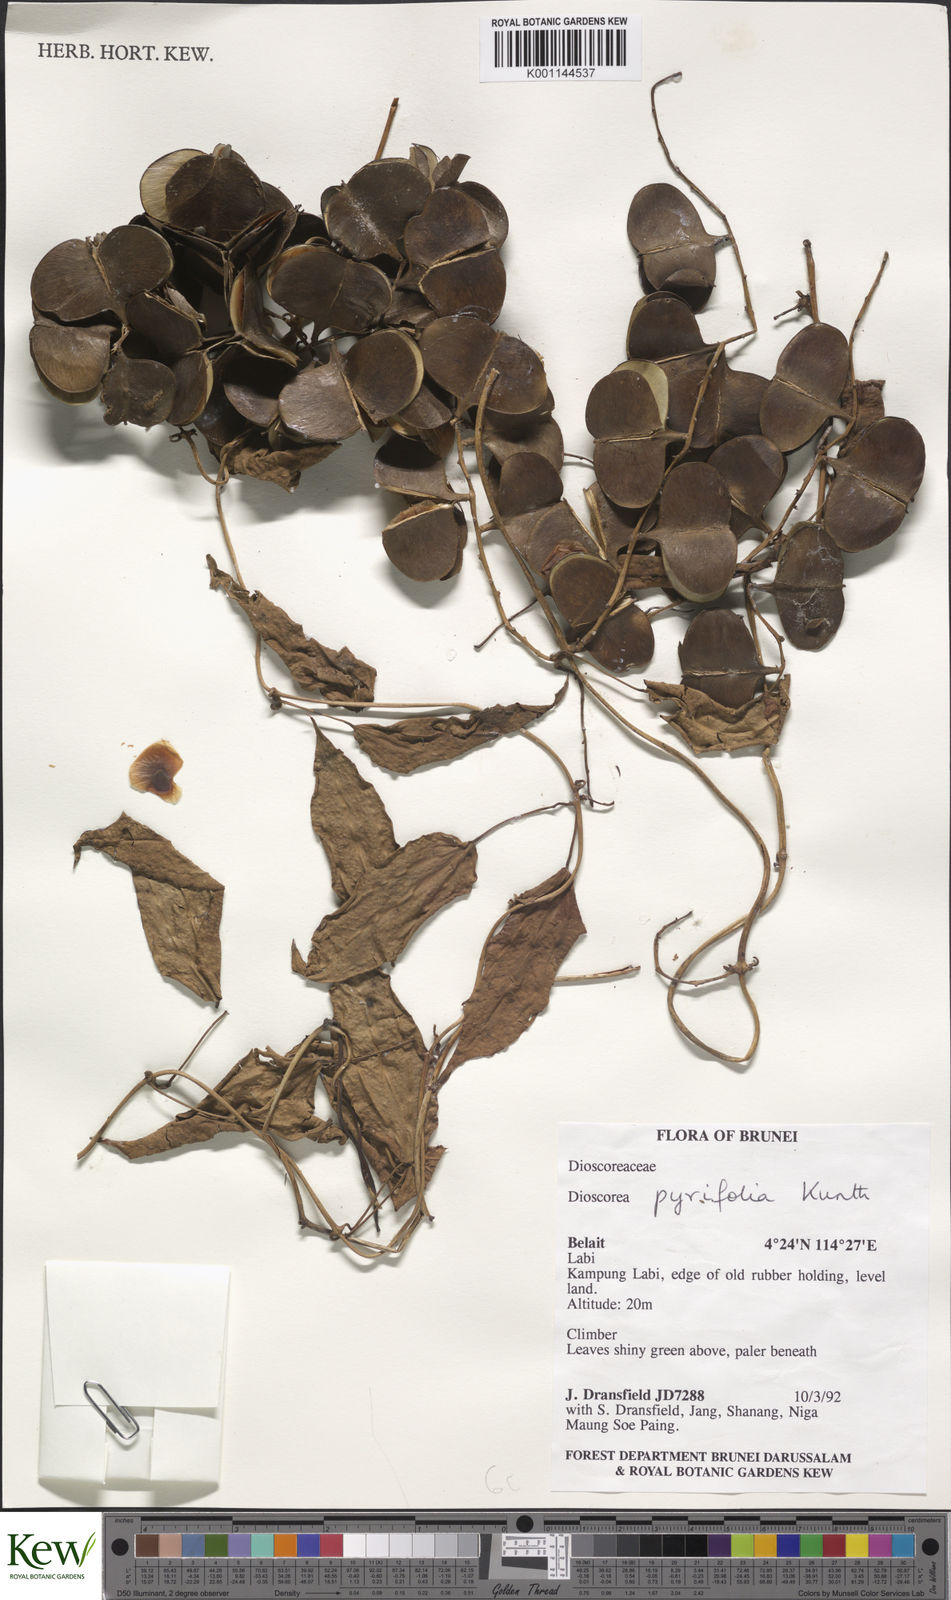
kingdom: Plantae
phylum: Tracheophyta
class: Liliopsida
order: Dioscoreales
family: Dioscoreaceae
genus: Dioscorea
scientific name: Dioscorea pyrifolia
